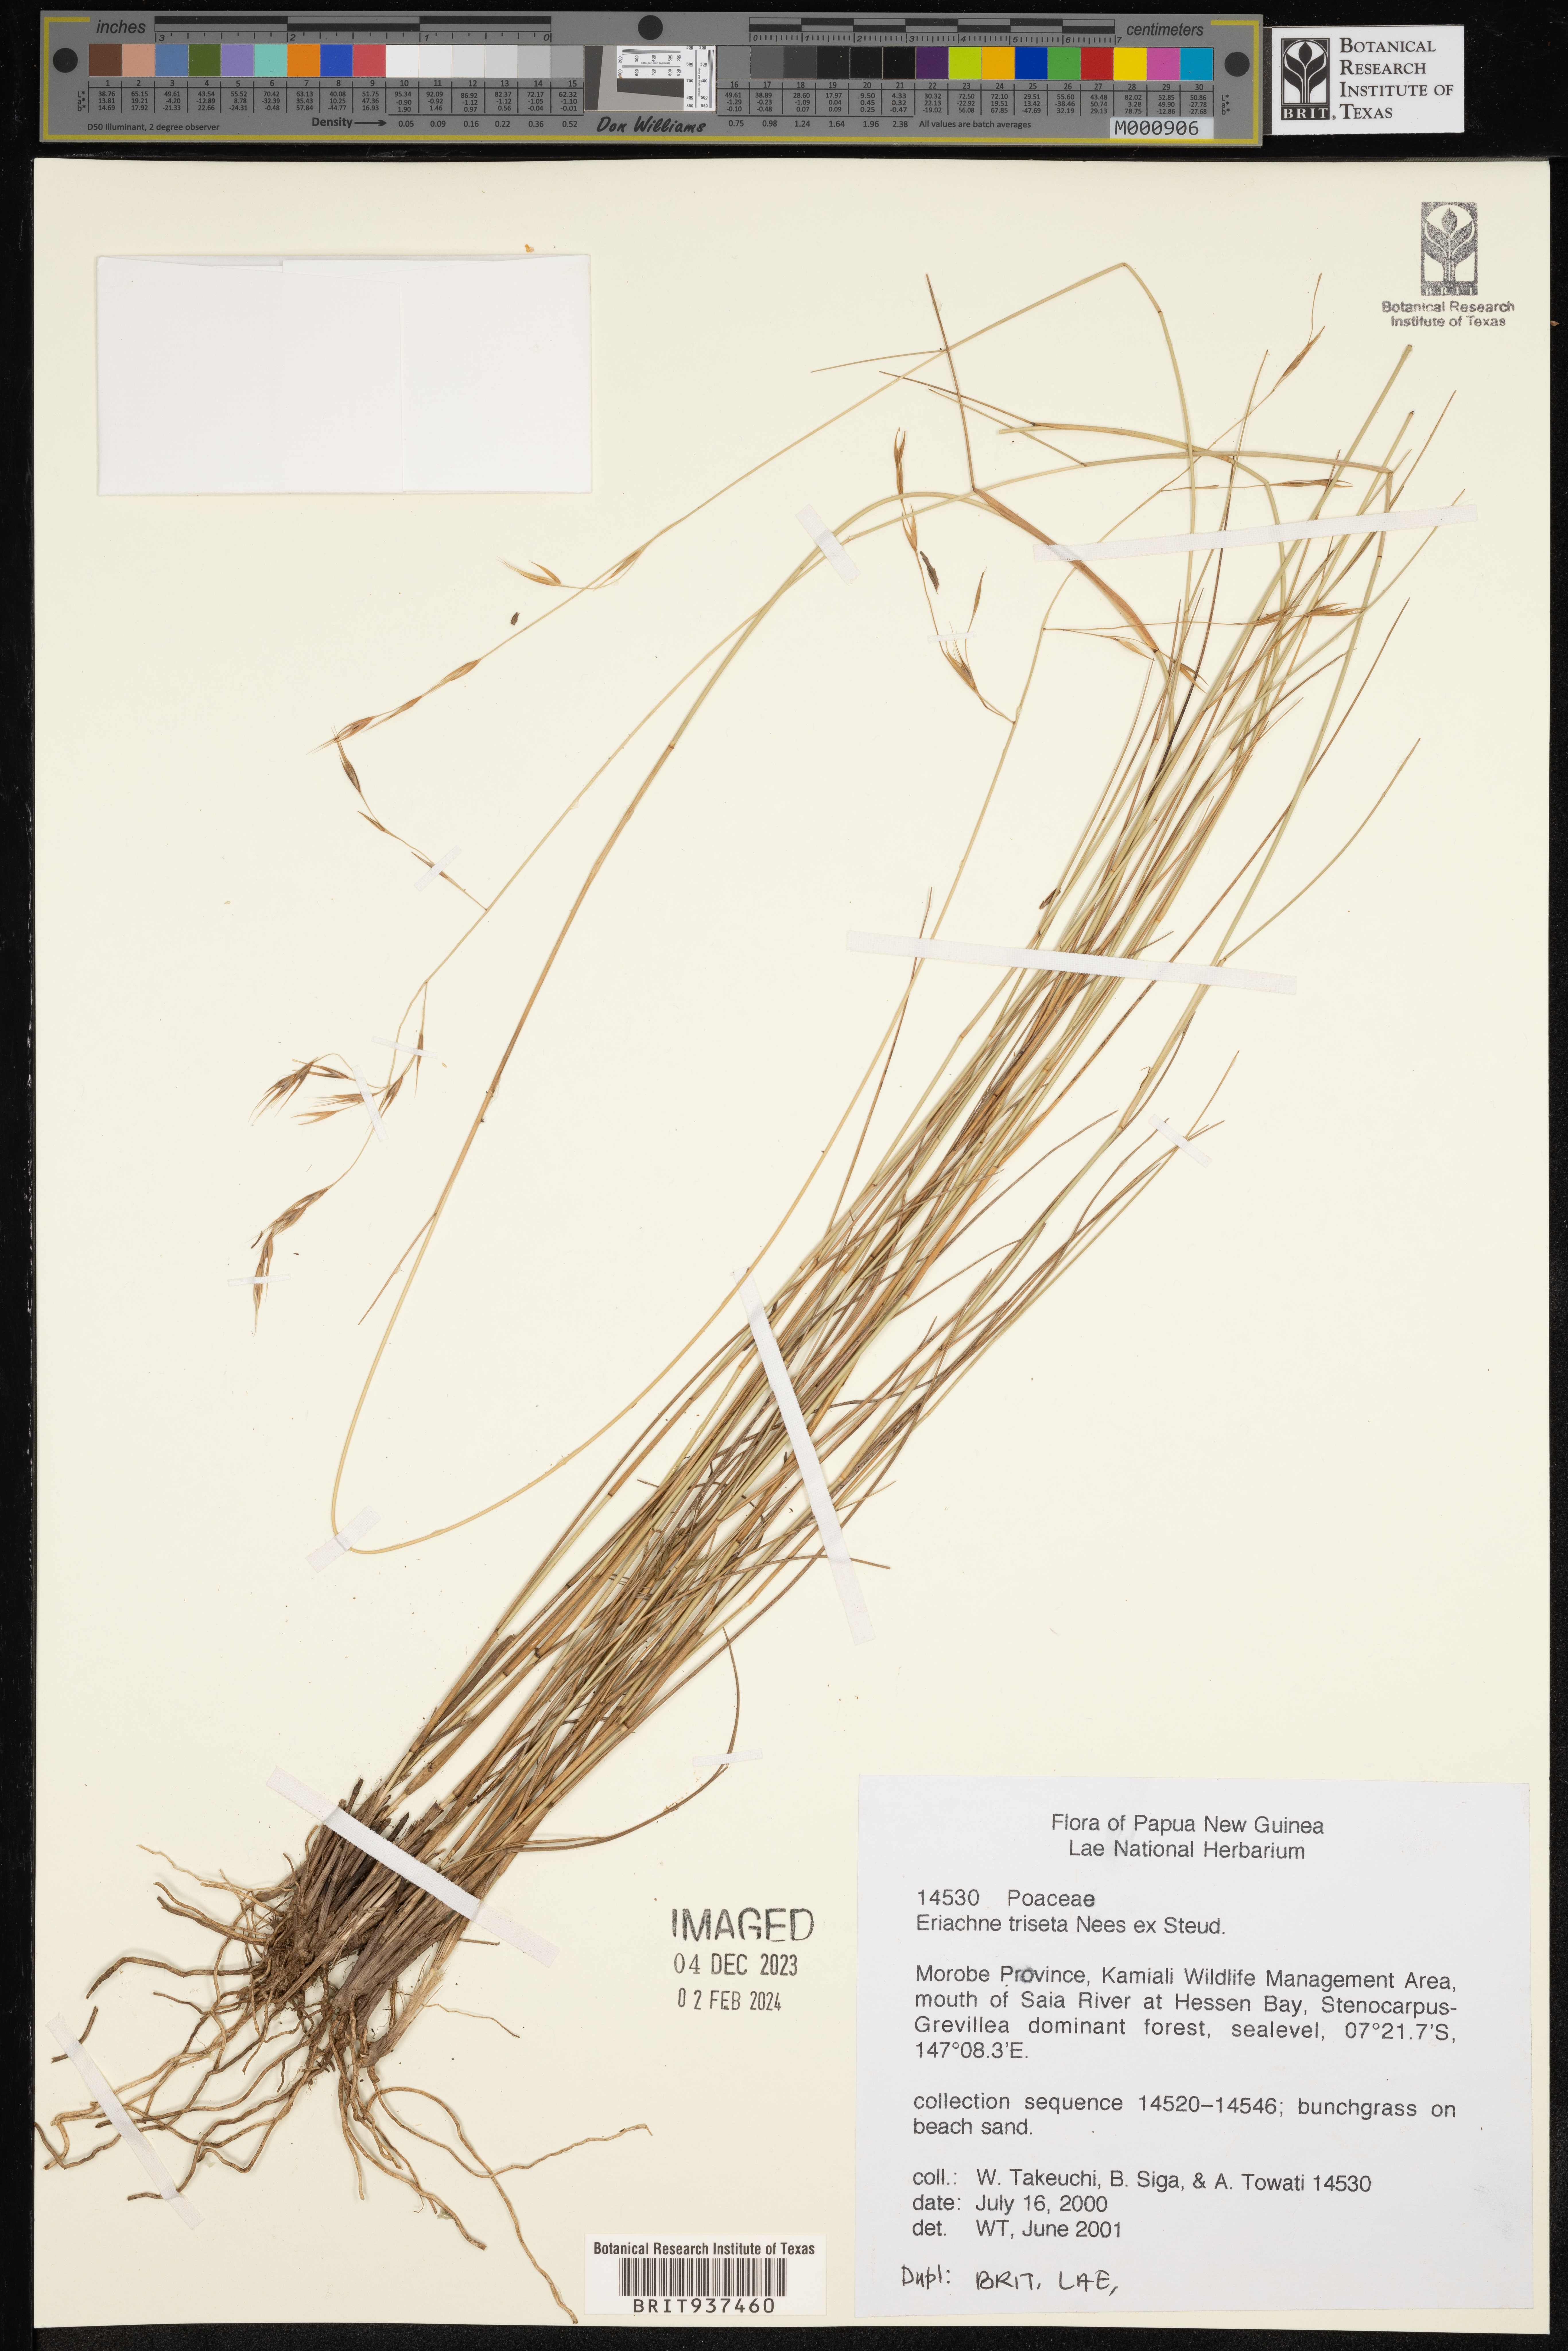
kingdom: Plantae
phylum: Tracheophyta
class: Liliopsida
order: Poales
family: Poaceae
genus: Eriachne
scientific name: Eriachne
